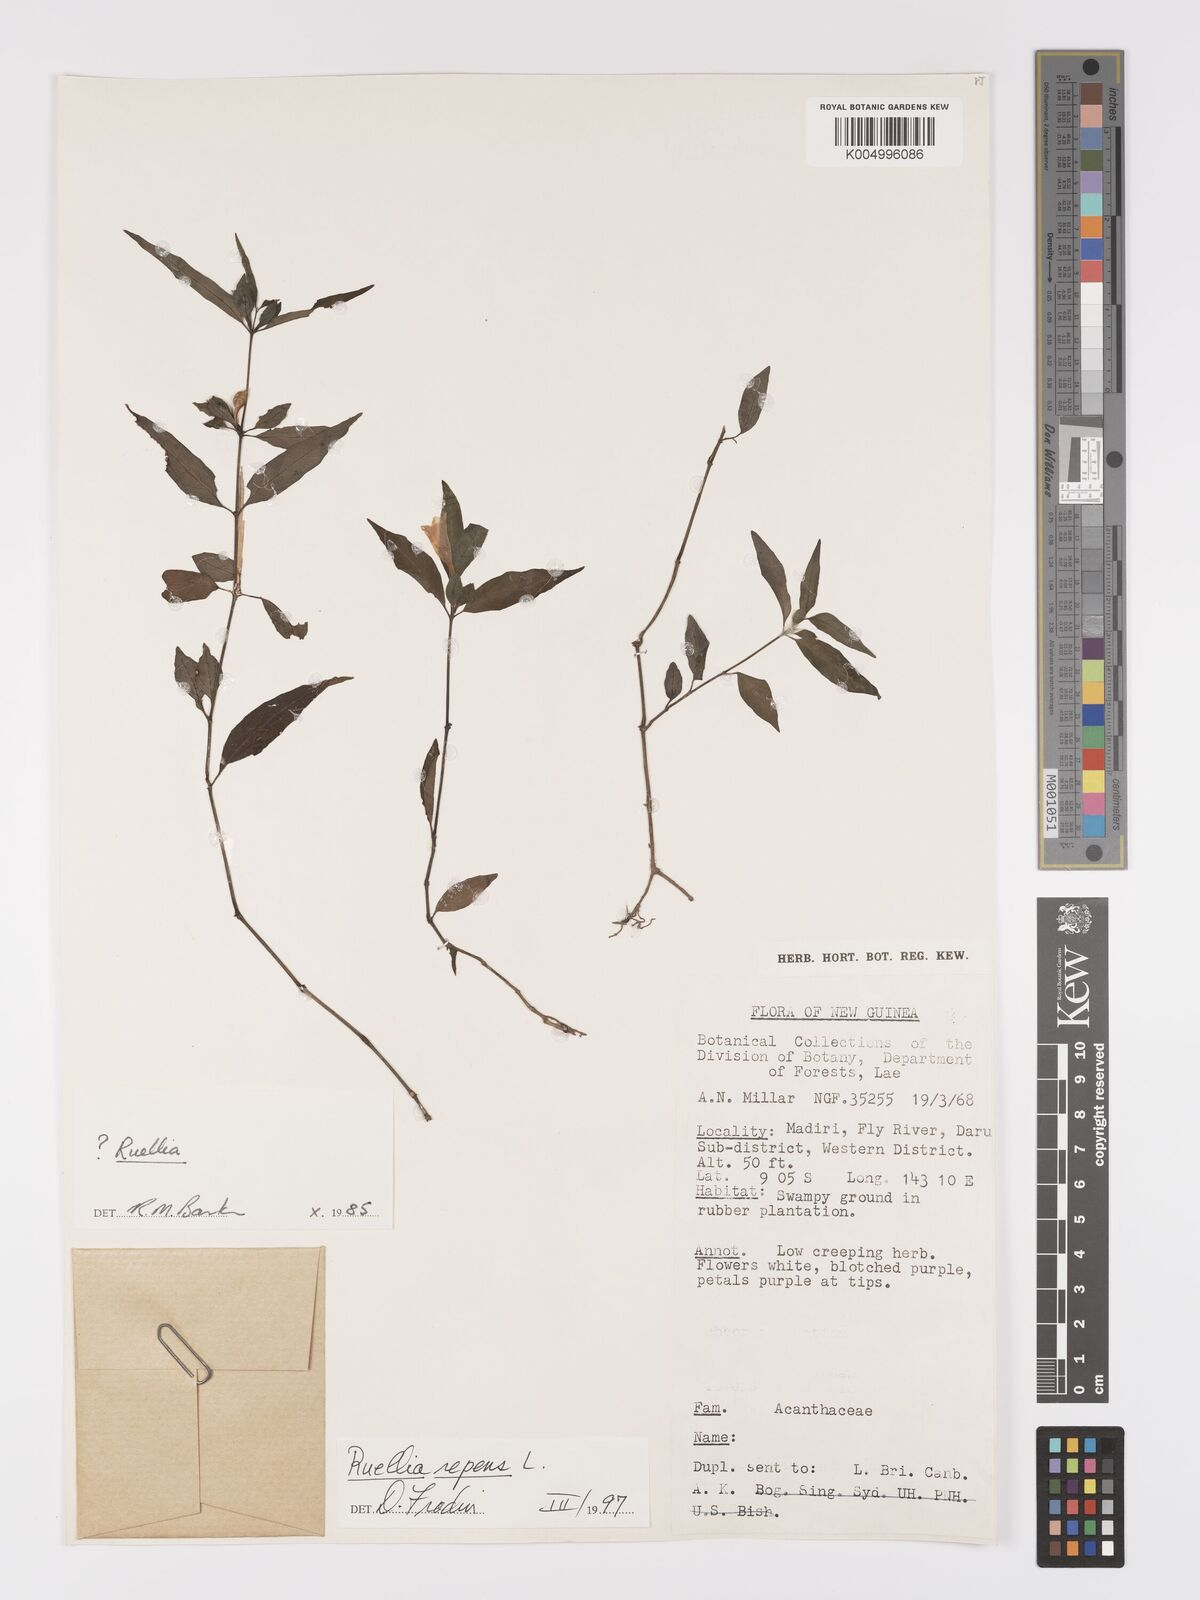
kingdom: Plantae
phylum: Tracheophyta
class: Magnoliopsida
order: Lamiales
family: Acanthaceae
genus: Ruellia
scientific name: Ruellia
